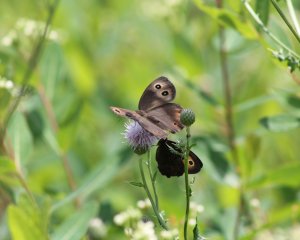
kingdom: Animalia
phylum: Arthropoda
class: Insecta
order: Lepidoptera
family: Nymphalidae
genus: Cercyonis
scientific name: Cercyonis pegala
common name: Common Wood-Nymph
